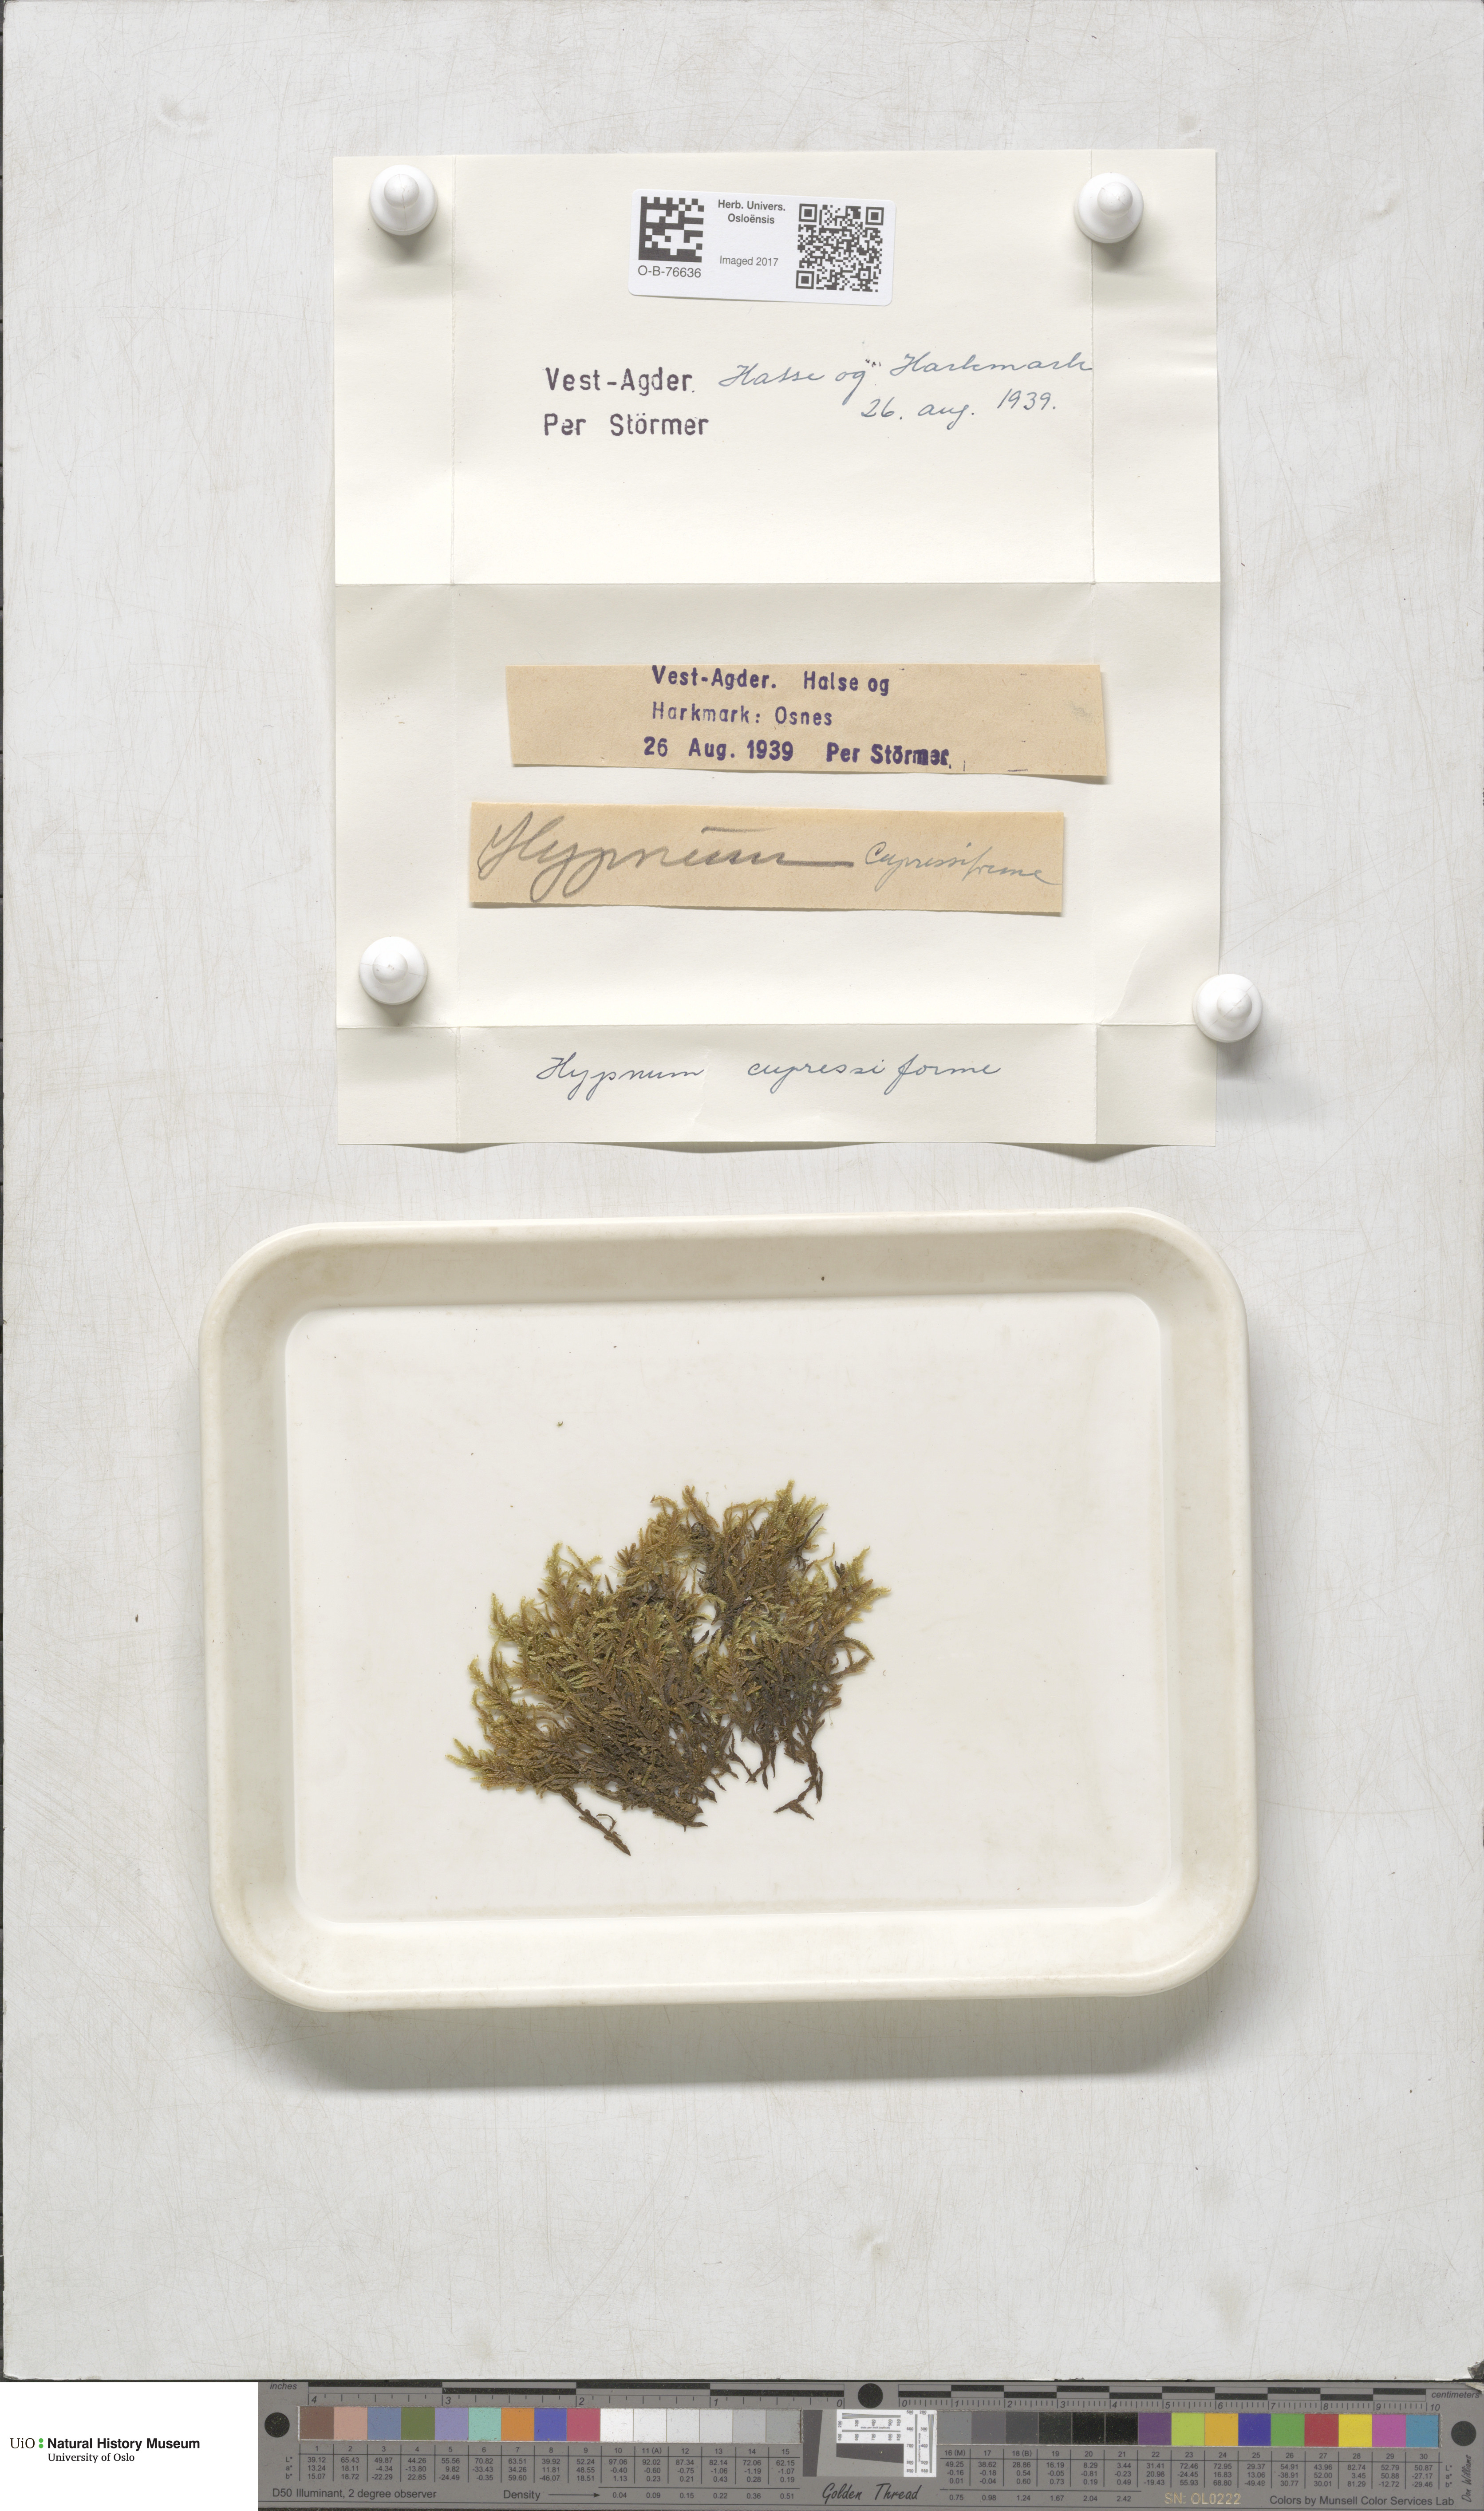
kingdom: Plantae
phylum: Bryophyta
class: Bryopsida
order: Hypnales
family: Hypnaceae
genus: Hypnum
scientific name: Hypnum cupressiforme
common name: Cypress-leaved plait-moss
